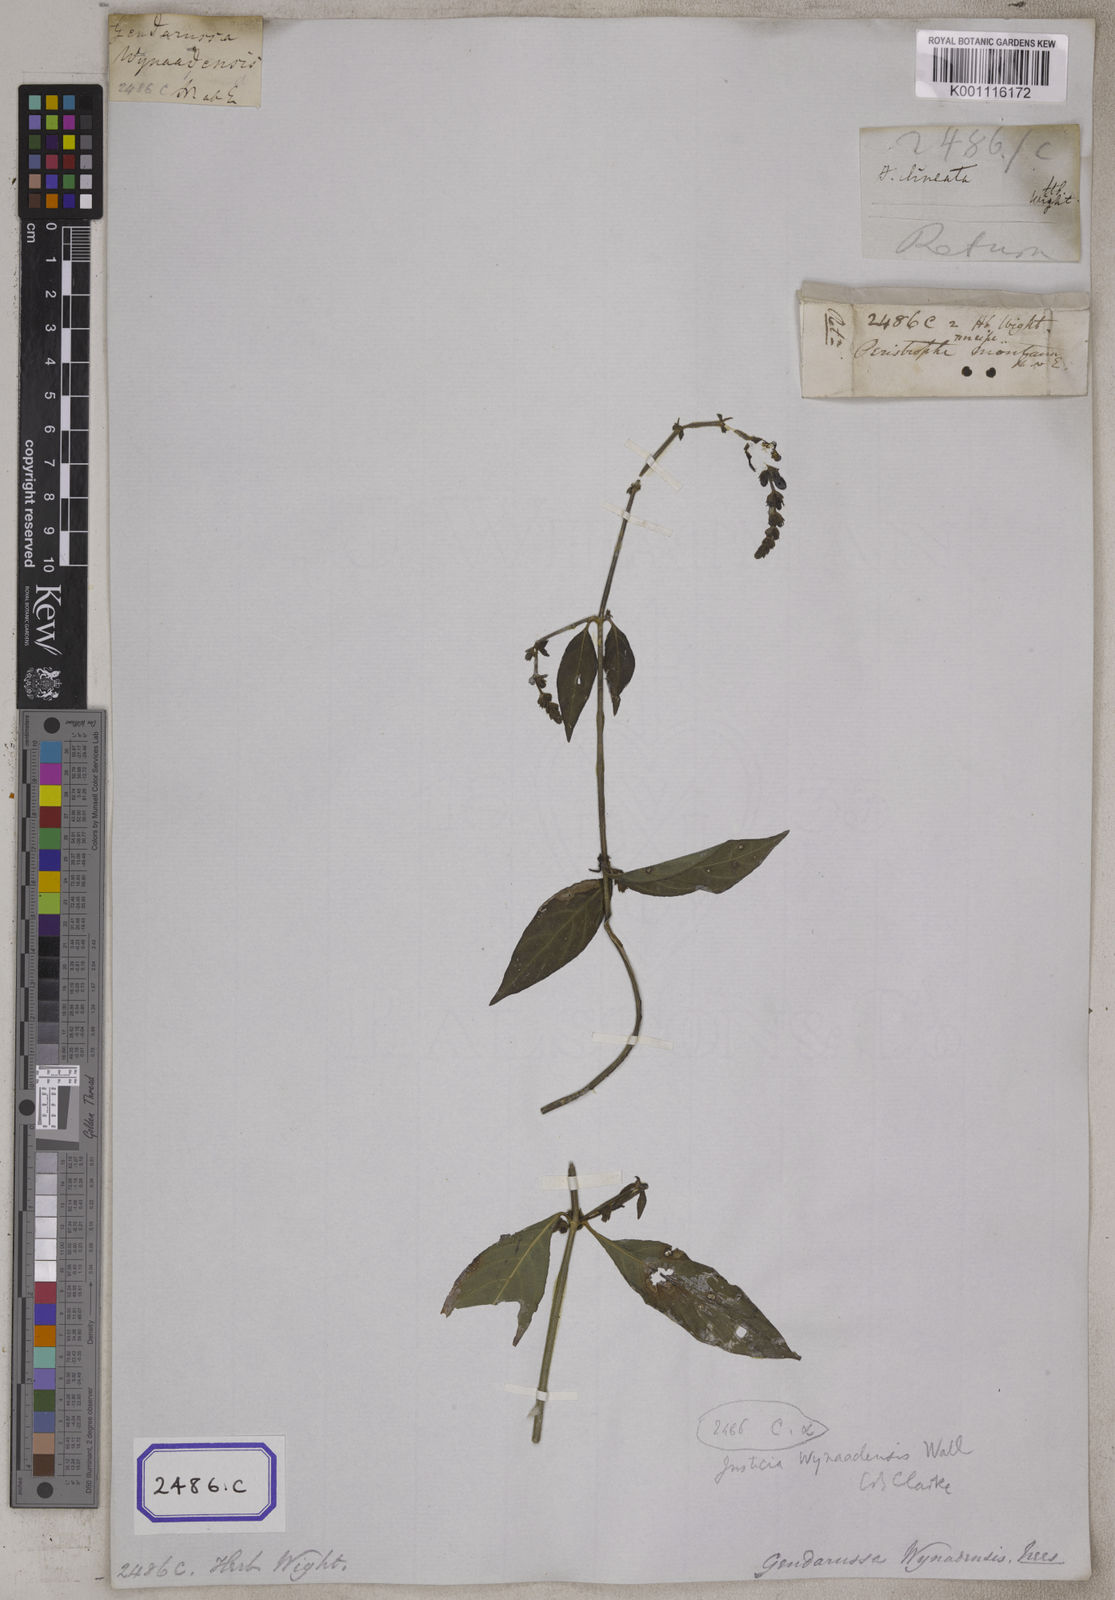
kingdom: Plantae
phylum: Tracheophyta
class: Magnoliopsida
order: Lamiales
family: Acanthaceae
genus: Andrographis
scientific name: Andrographis lineata
